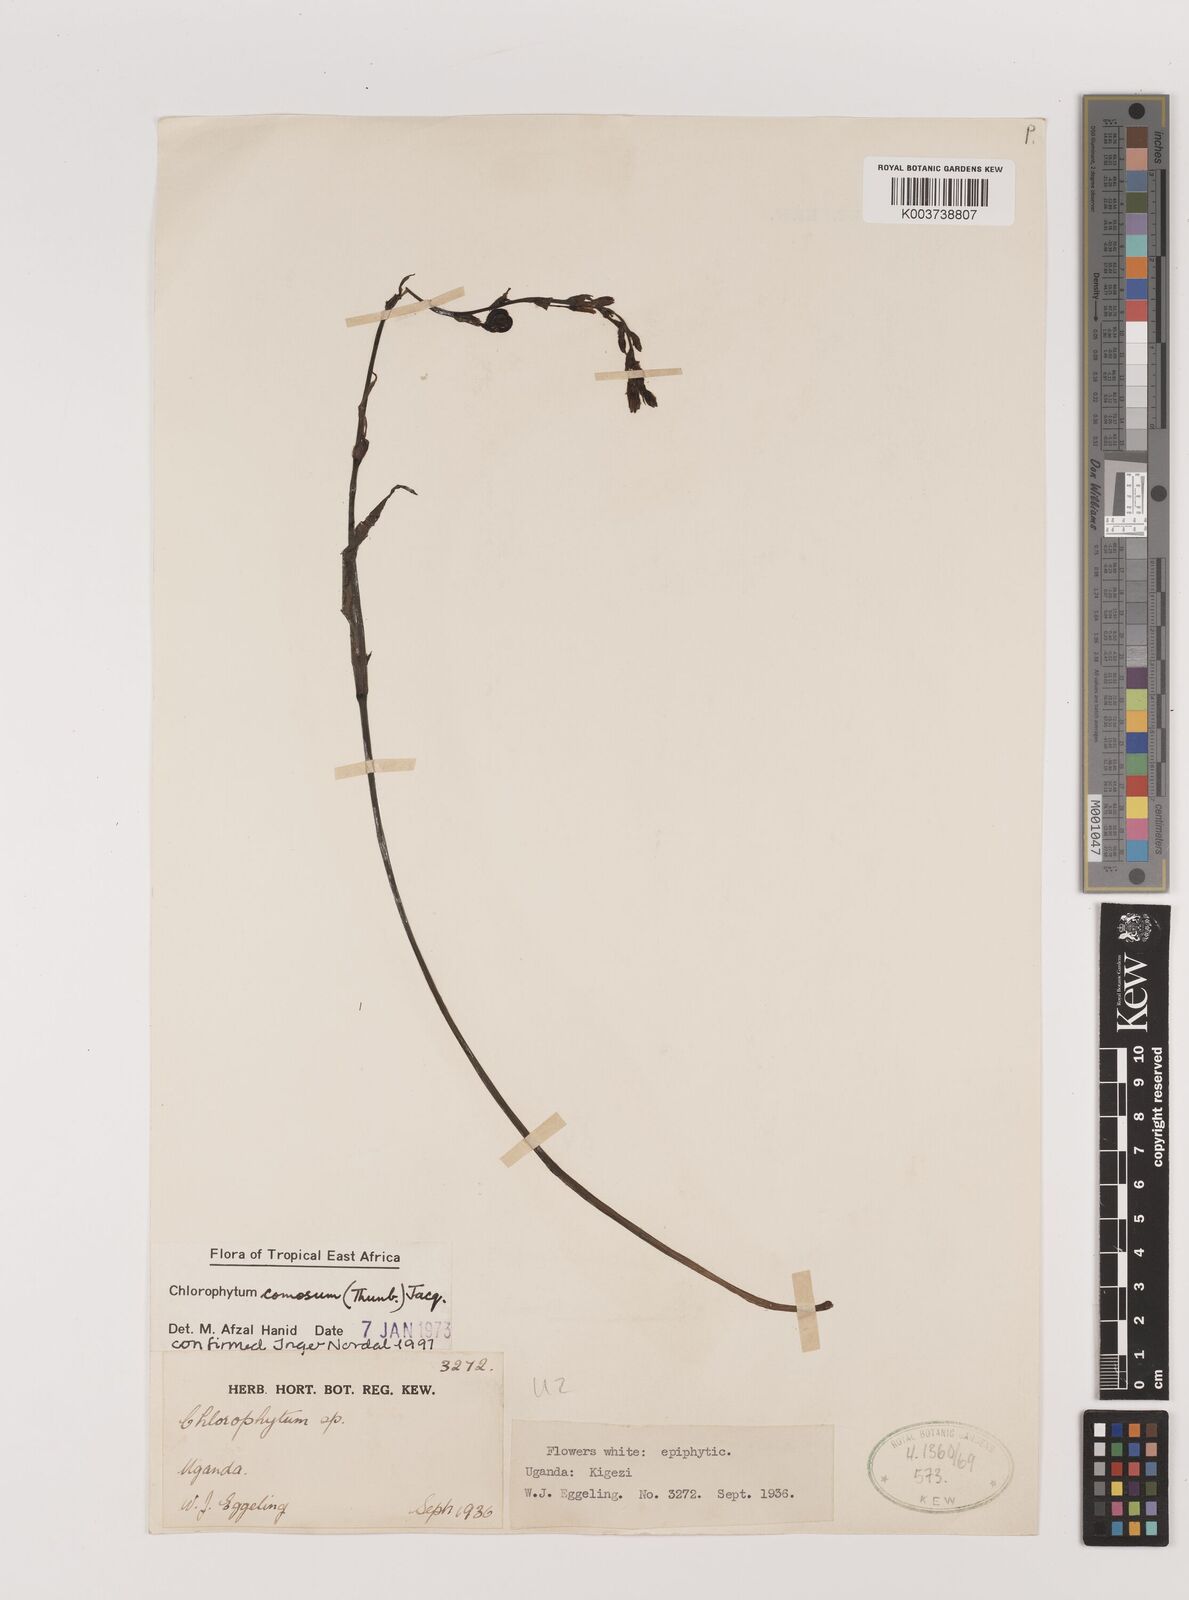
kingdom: Plantae
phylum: Tracheophyta
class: Liliopsida
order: Asparagales
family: Asparagaceae
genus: Chlorophytum
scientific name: Chlorophytum comosum
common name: Spider plant
